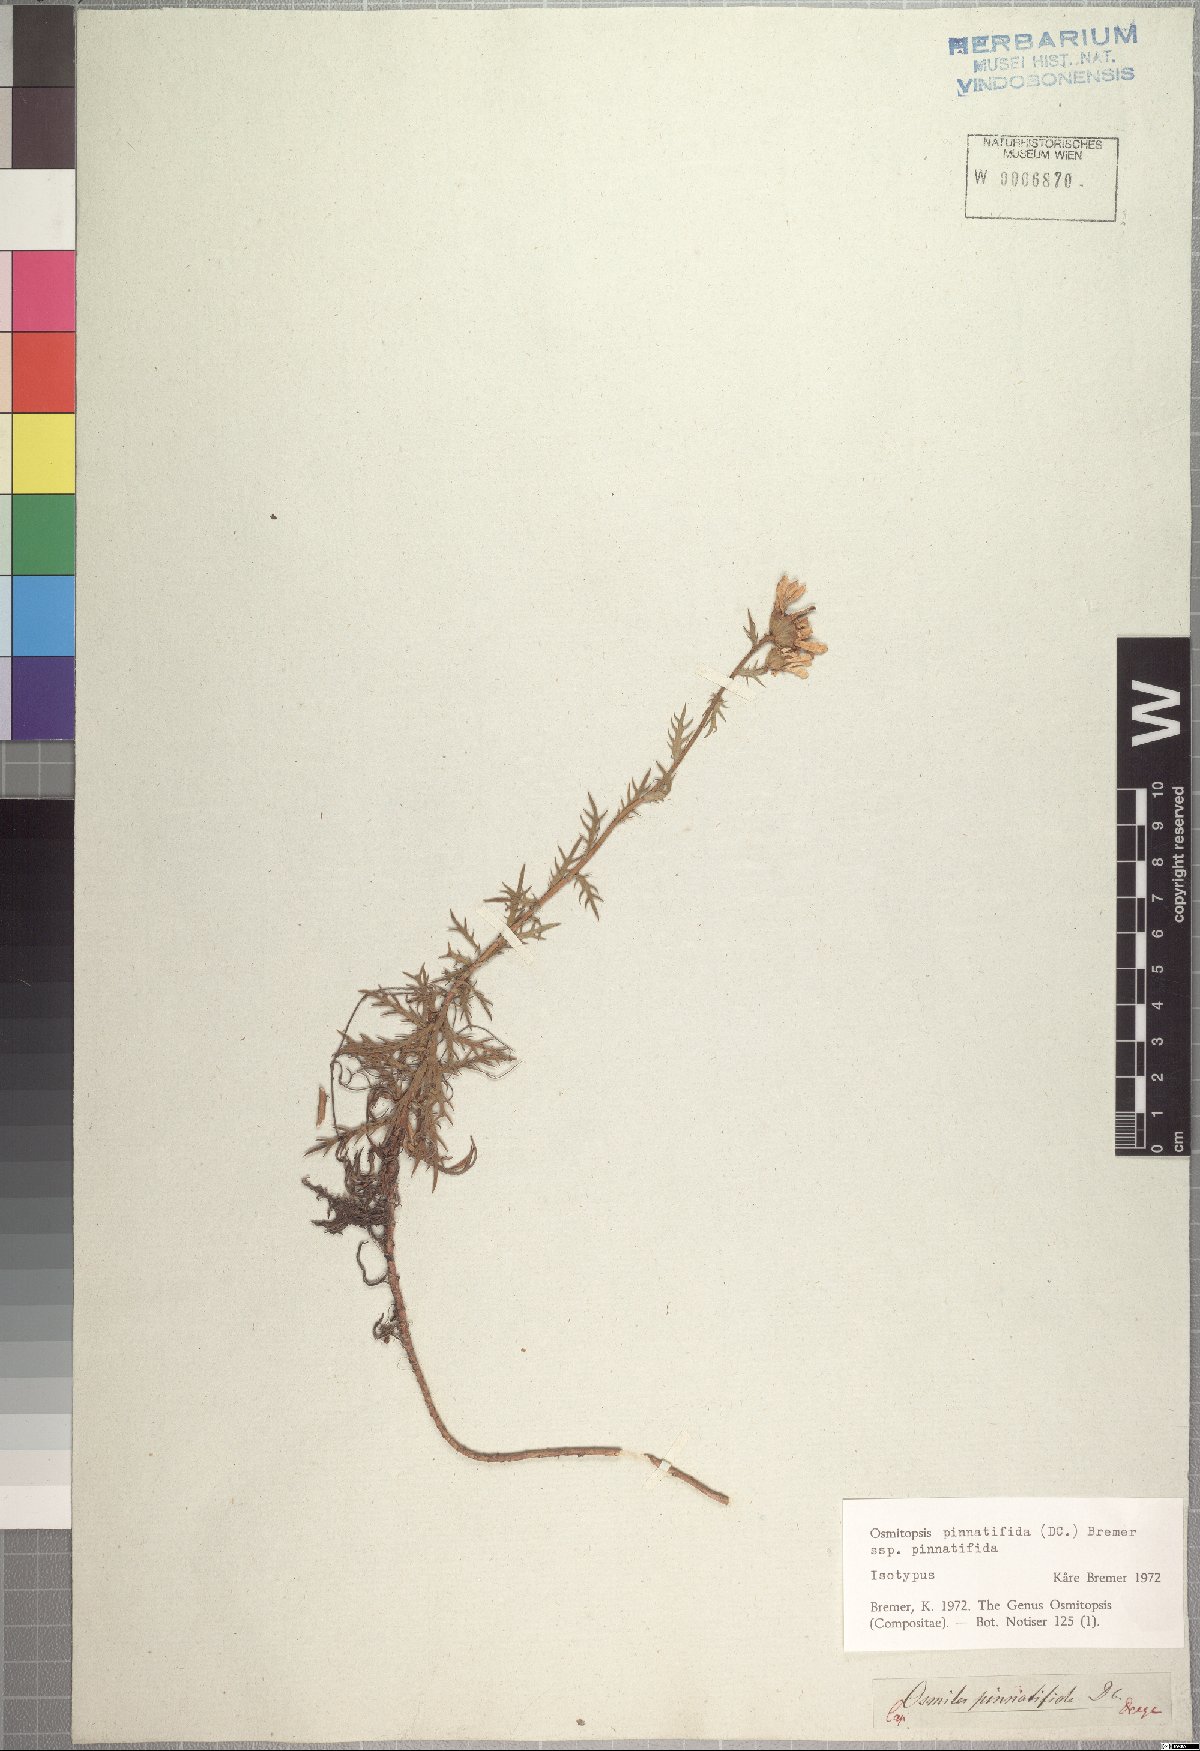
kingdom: Plantae
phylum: Tracheophyta
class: Magnoliopsida
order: Asterales
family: Asteraceae
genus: Osmitopsis
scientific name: Osmitopsis pinnatifida
